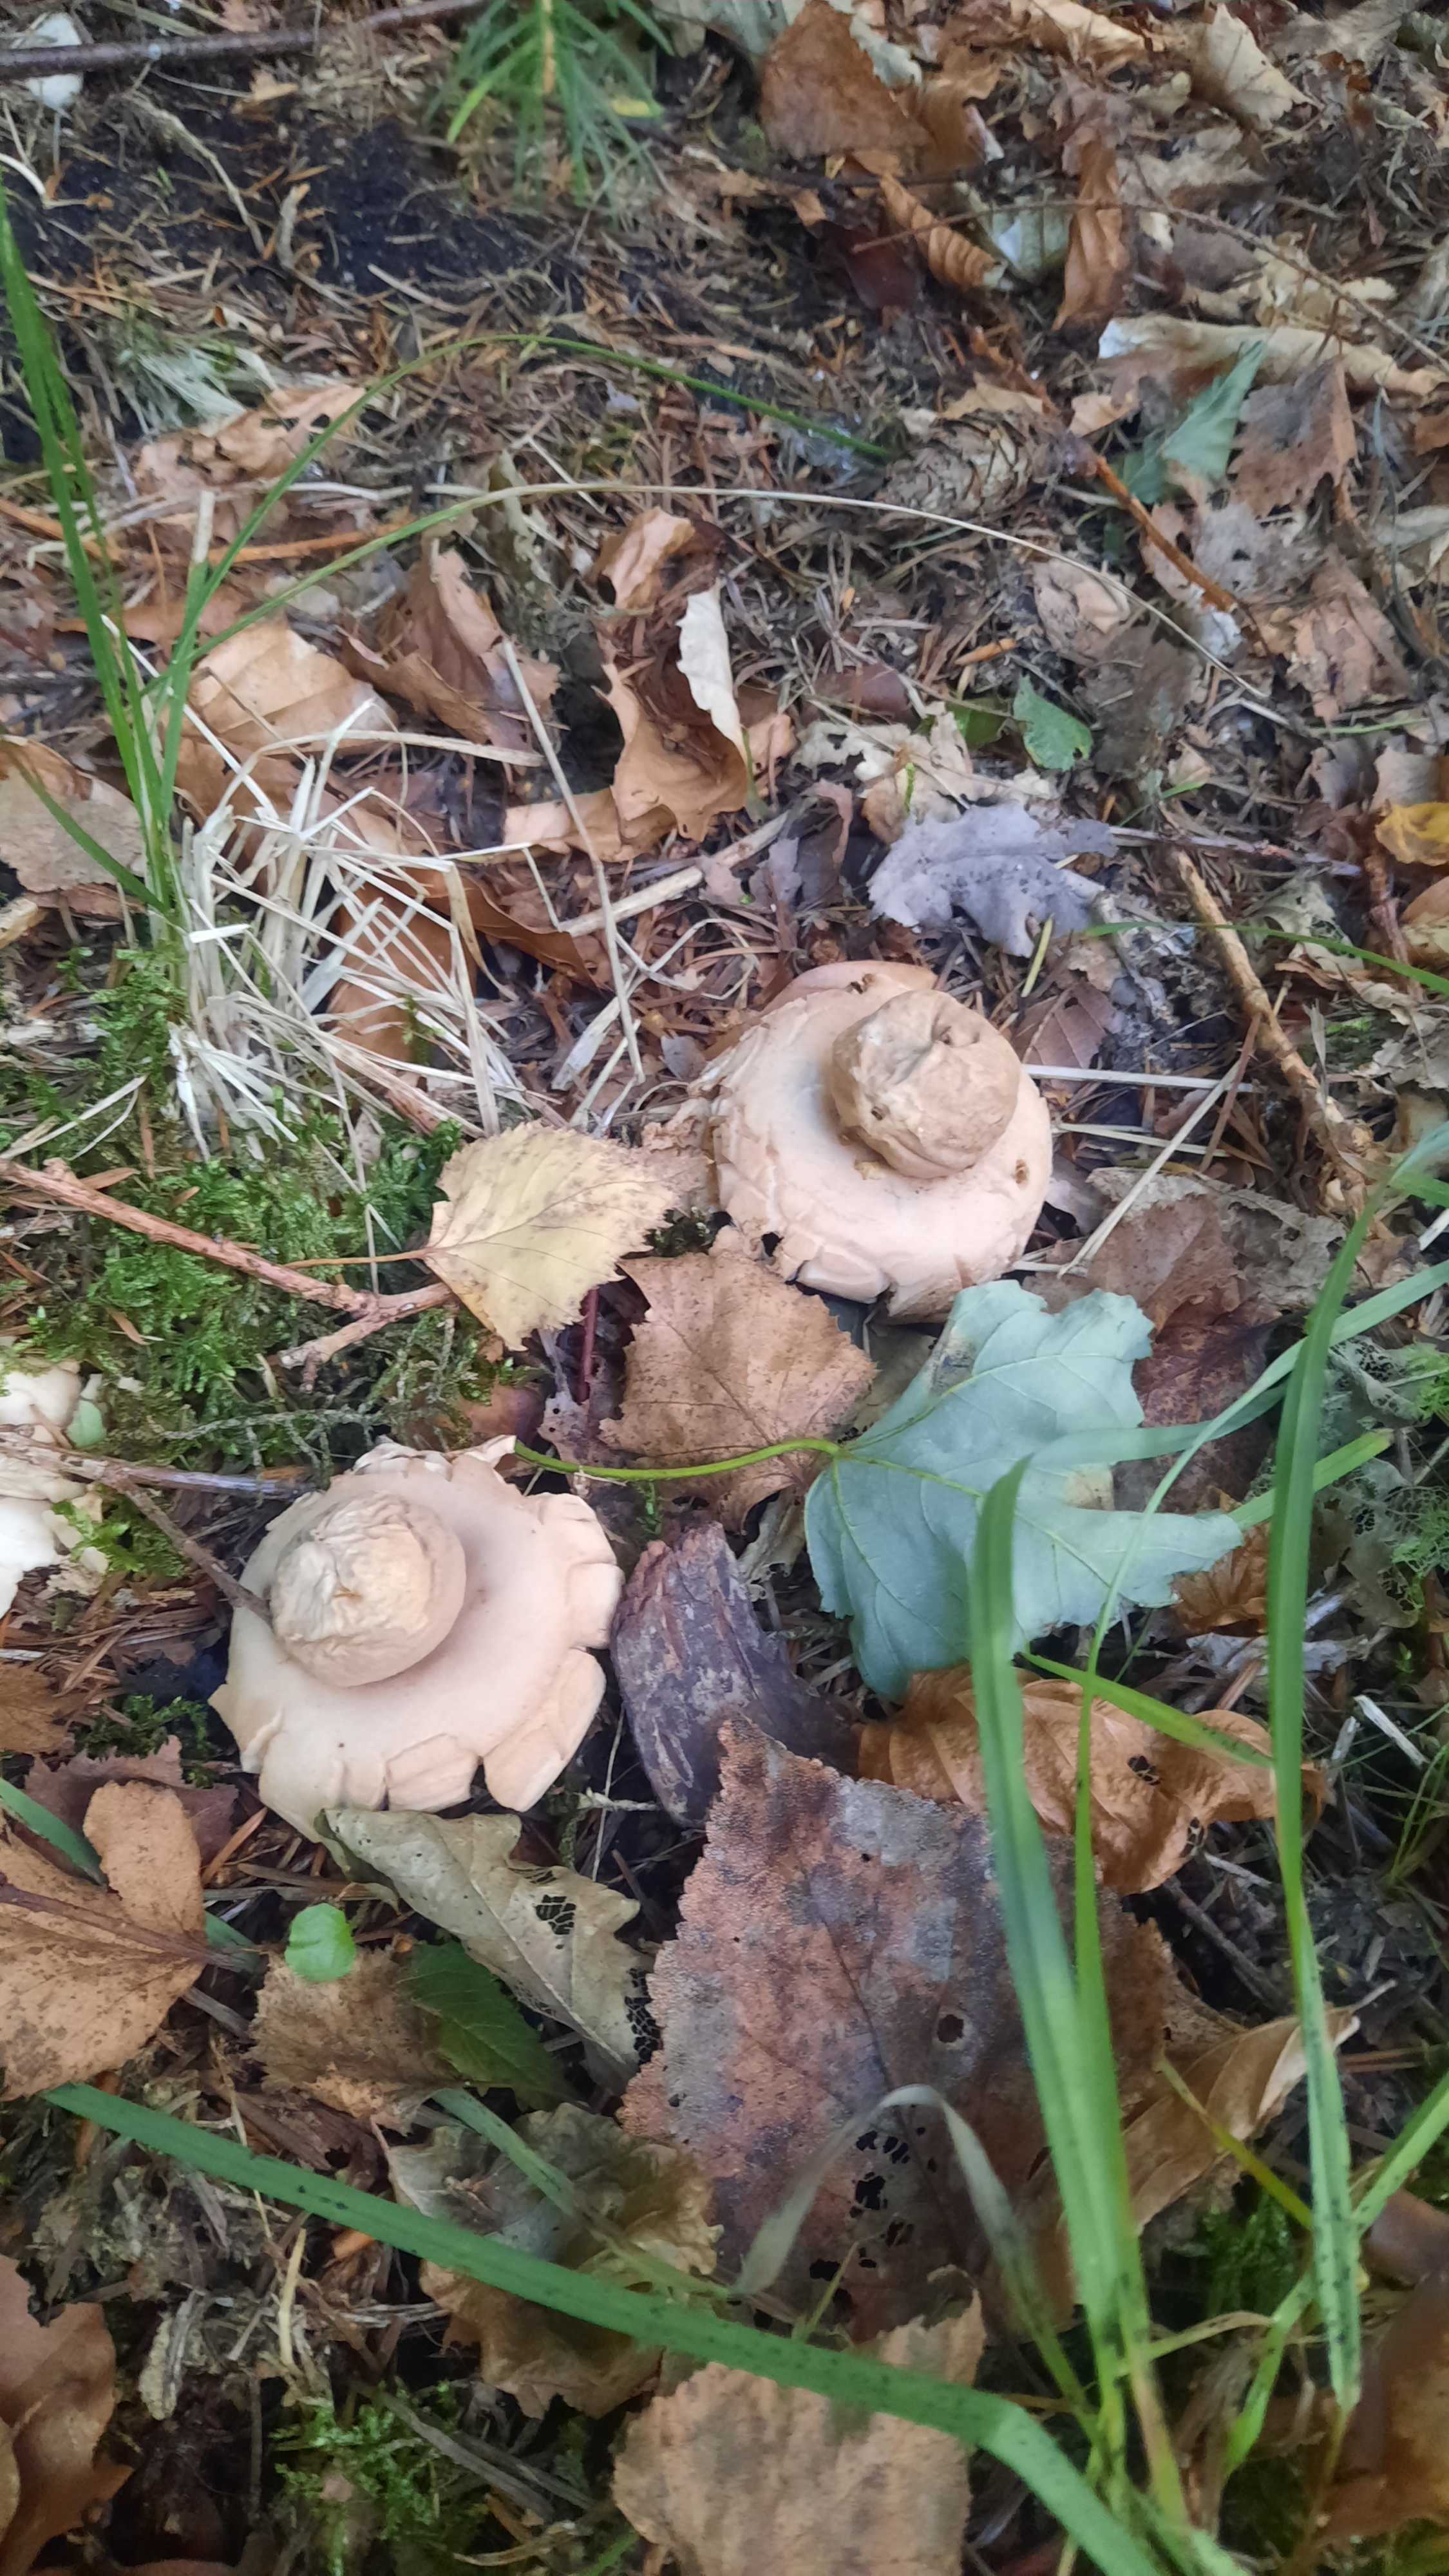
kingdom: Fungi
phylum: Basidiomycota
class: Agaricomycetes
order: Geastrales
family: Geastraceae
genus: Geastrum
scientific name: Geastrum michelianum
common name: kødet stjernebold
